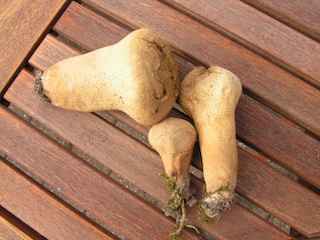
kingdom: Fungi
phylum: Basidiomycota
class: Agaricomycetes
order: Agaricales
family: Lycoperdaceae
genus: Lycoperdon
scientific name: Lycoperdon excipuliforme
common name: højstokket støvbold
